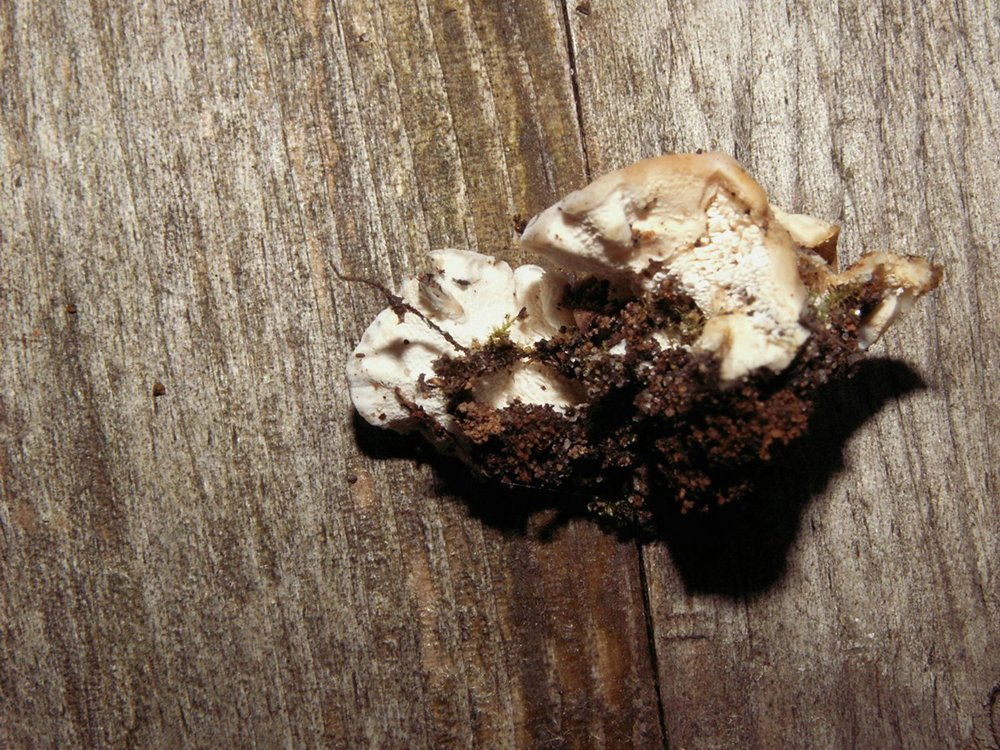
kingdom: Fungi
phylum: Basidiomycota
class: Agaricomycetes
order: Cantharellales
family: Hydnaceae
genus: Sistotrema
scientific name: Sistotrema confluens
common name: stilket kroneskorpe
